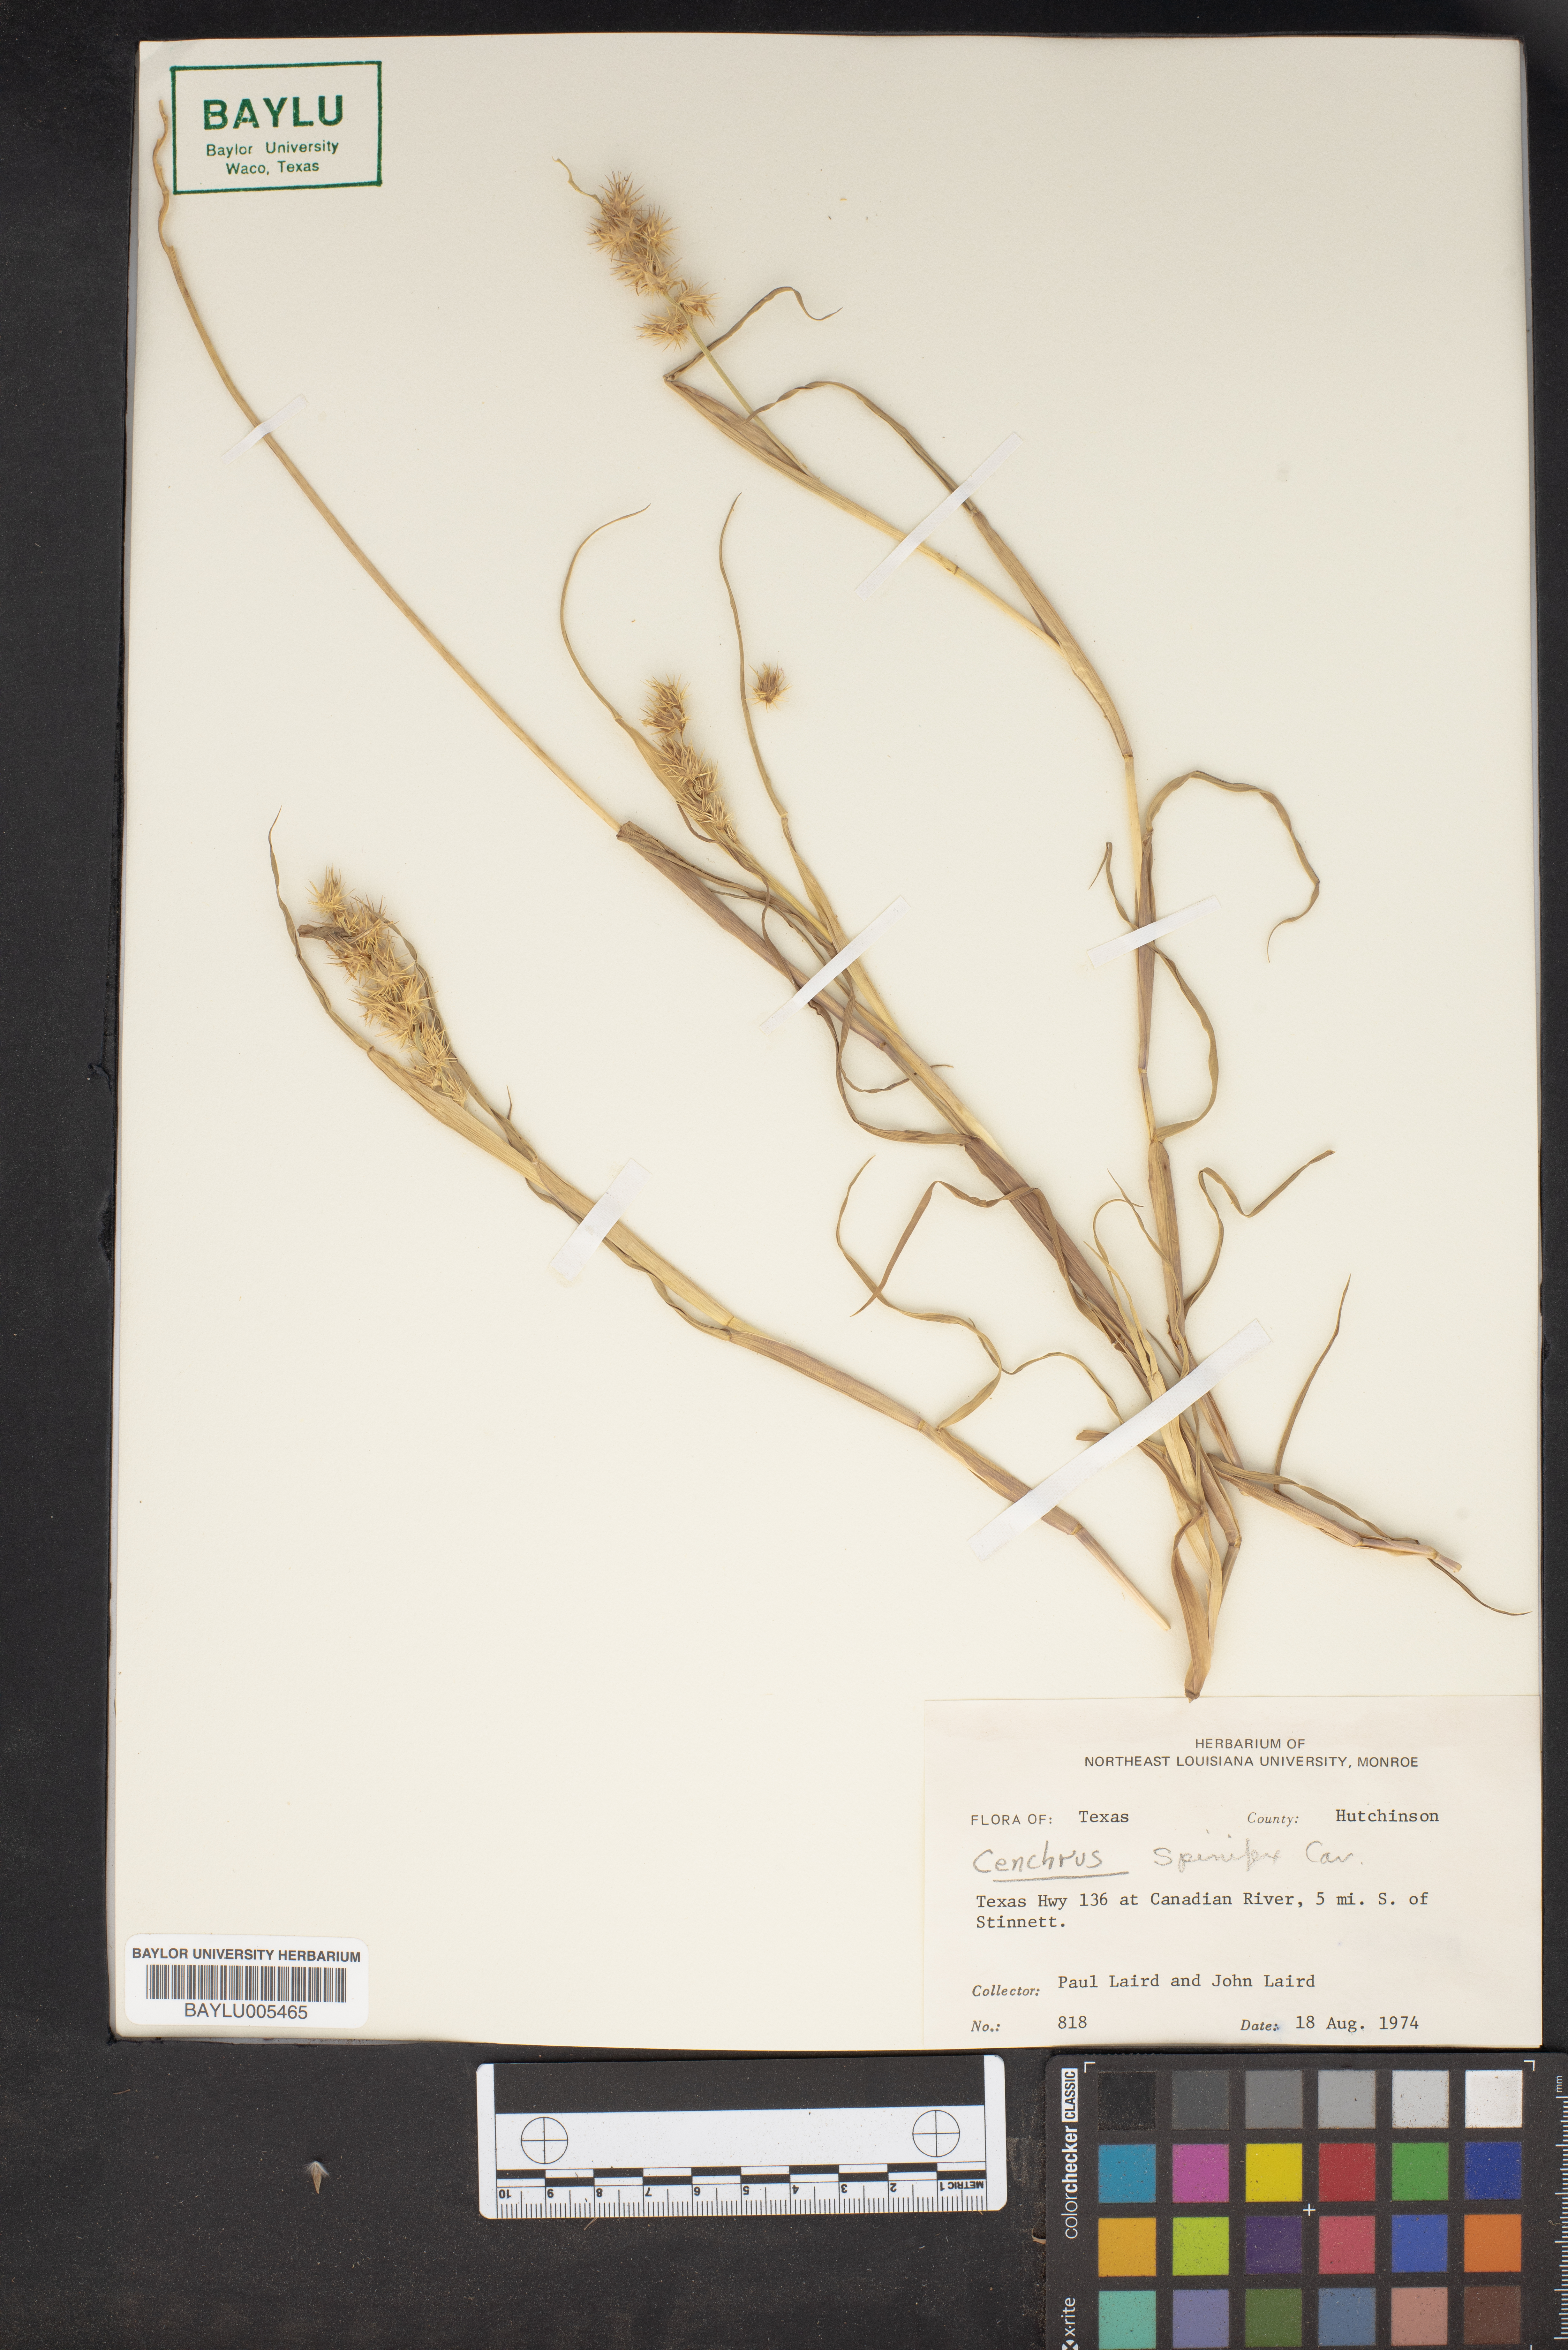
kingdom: Plantae
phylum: Tracheophyta
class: Liliopsida
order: Poales
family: Poaceae
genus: Cenchrus
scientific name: Cenchrus spinifex
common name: Coast sandbur
